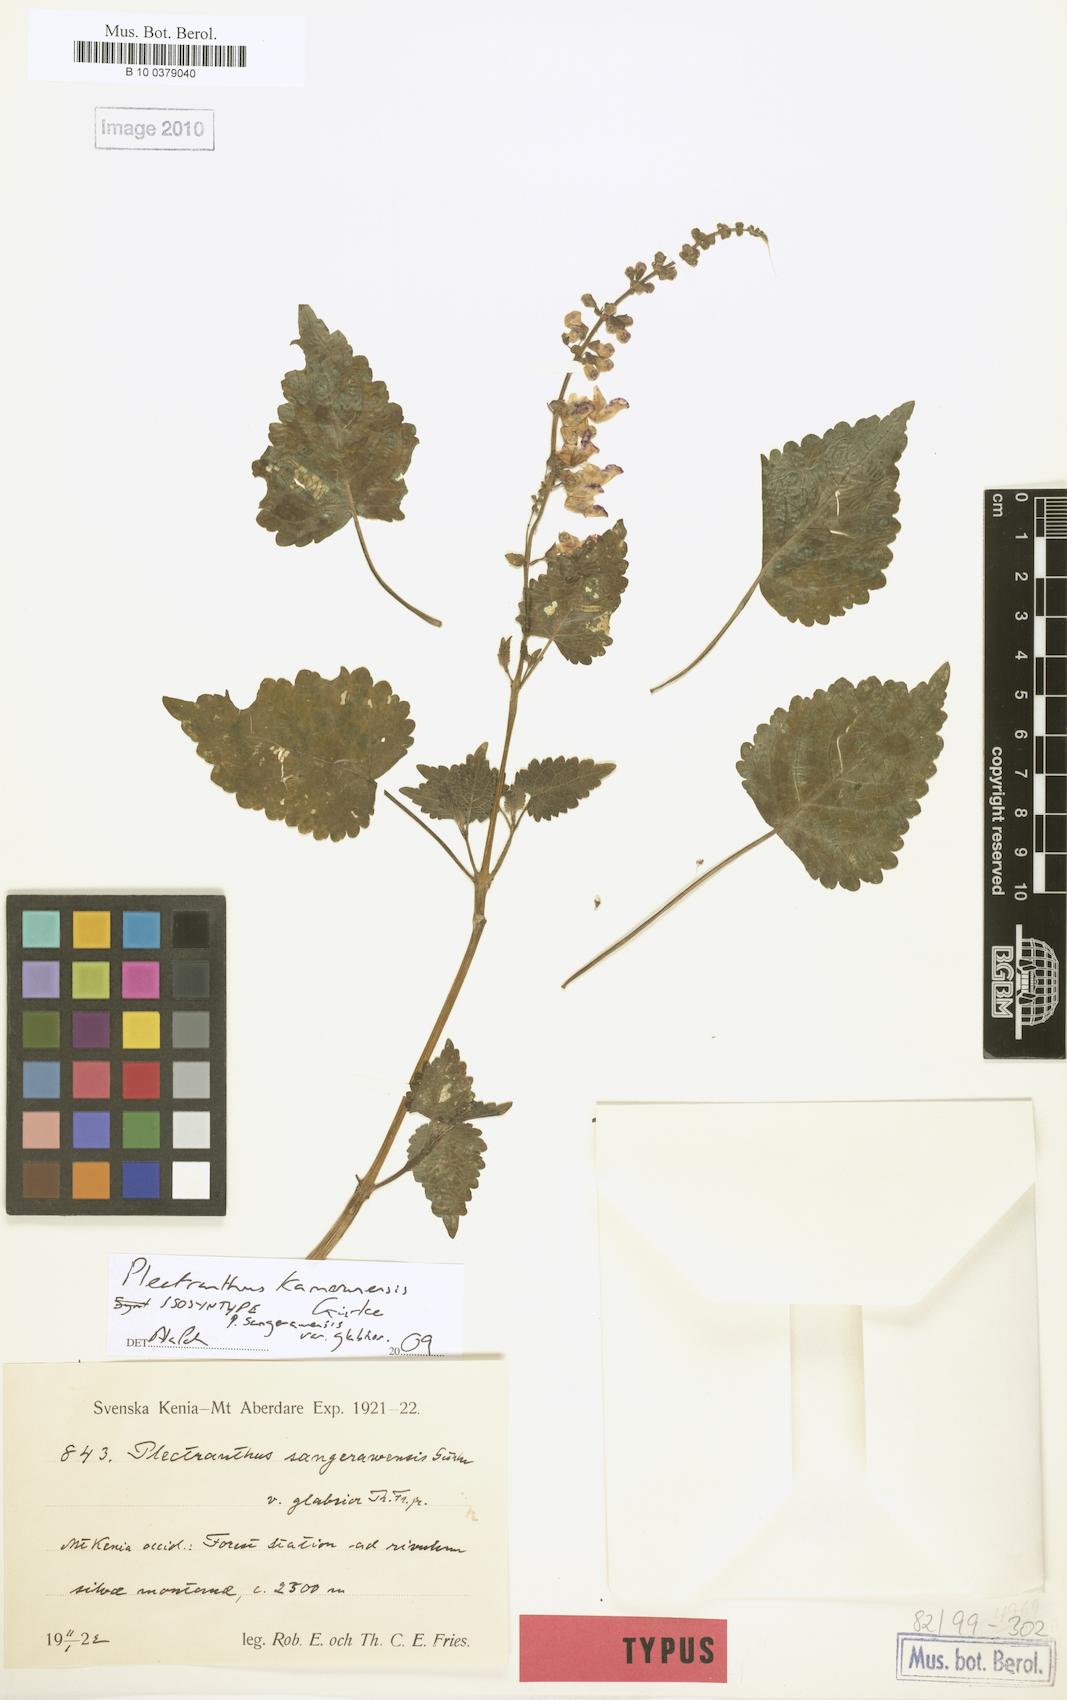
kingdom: Plantae
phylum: Tracheophyta
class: Magnoliopsida
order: Lamiales
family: Lamiaceae
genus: Equilabium
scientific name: Equilabium kamerunense
